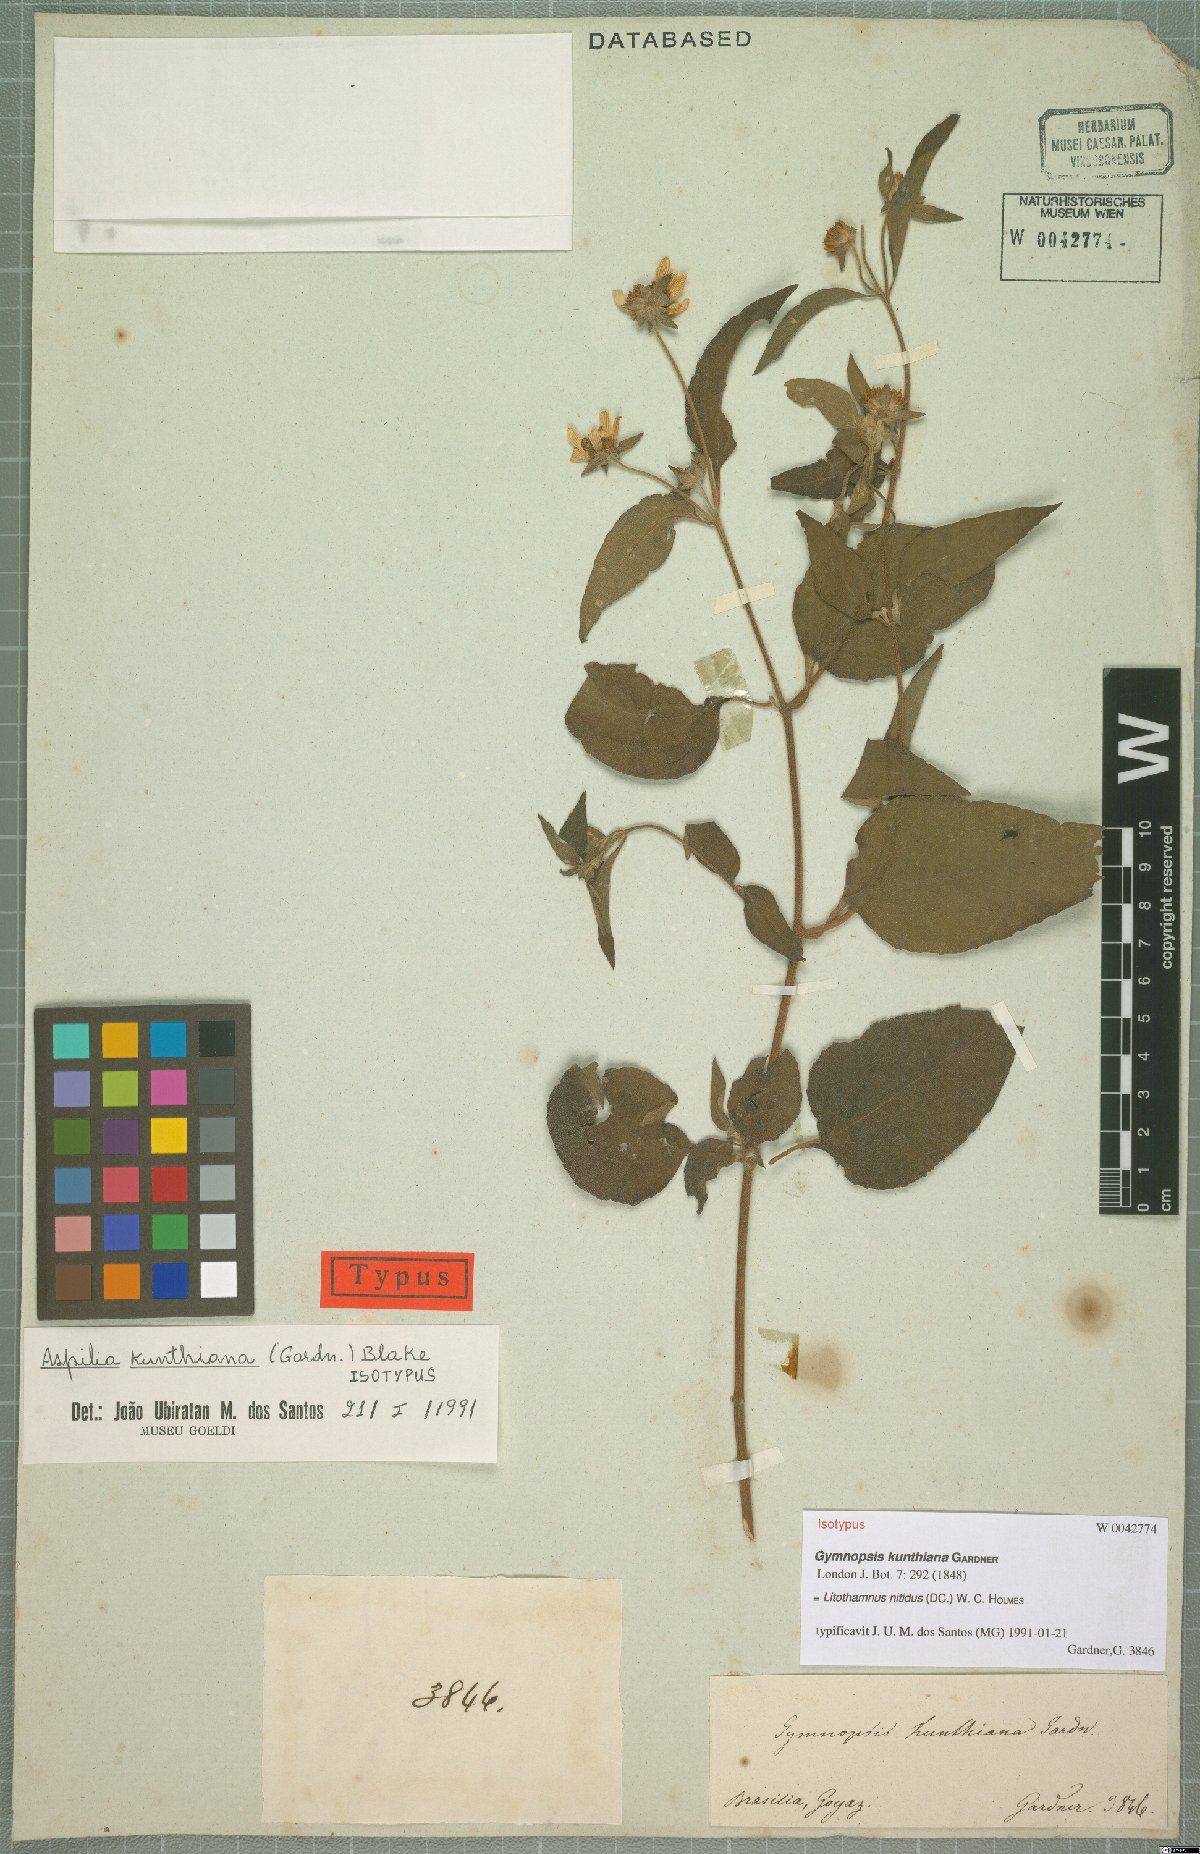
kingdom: Plantae
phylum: Tracheophyta
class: Magnoliopsida
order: Asterales
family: Asteraceae
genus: Litothamnus
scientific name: Litothamnus nitidus
